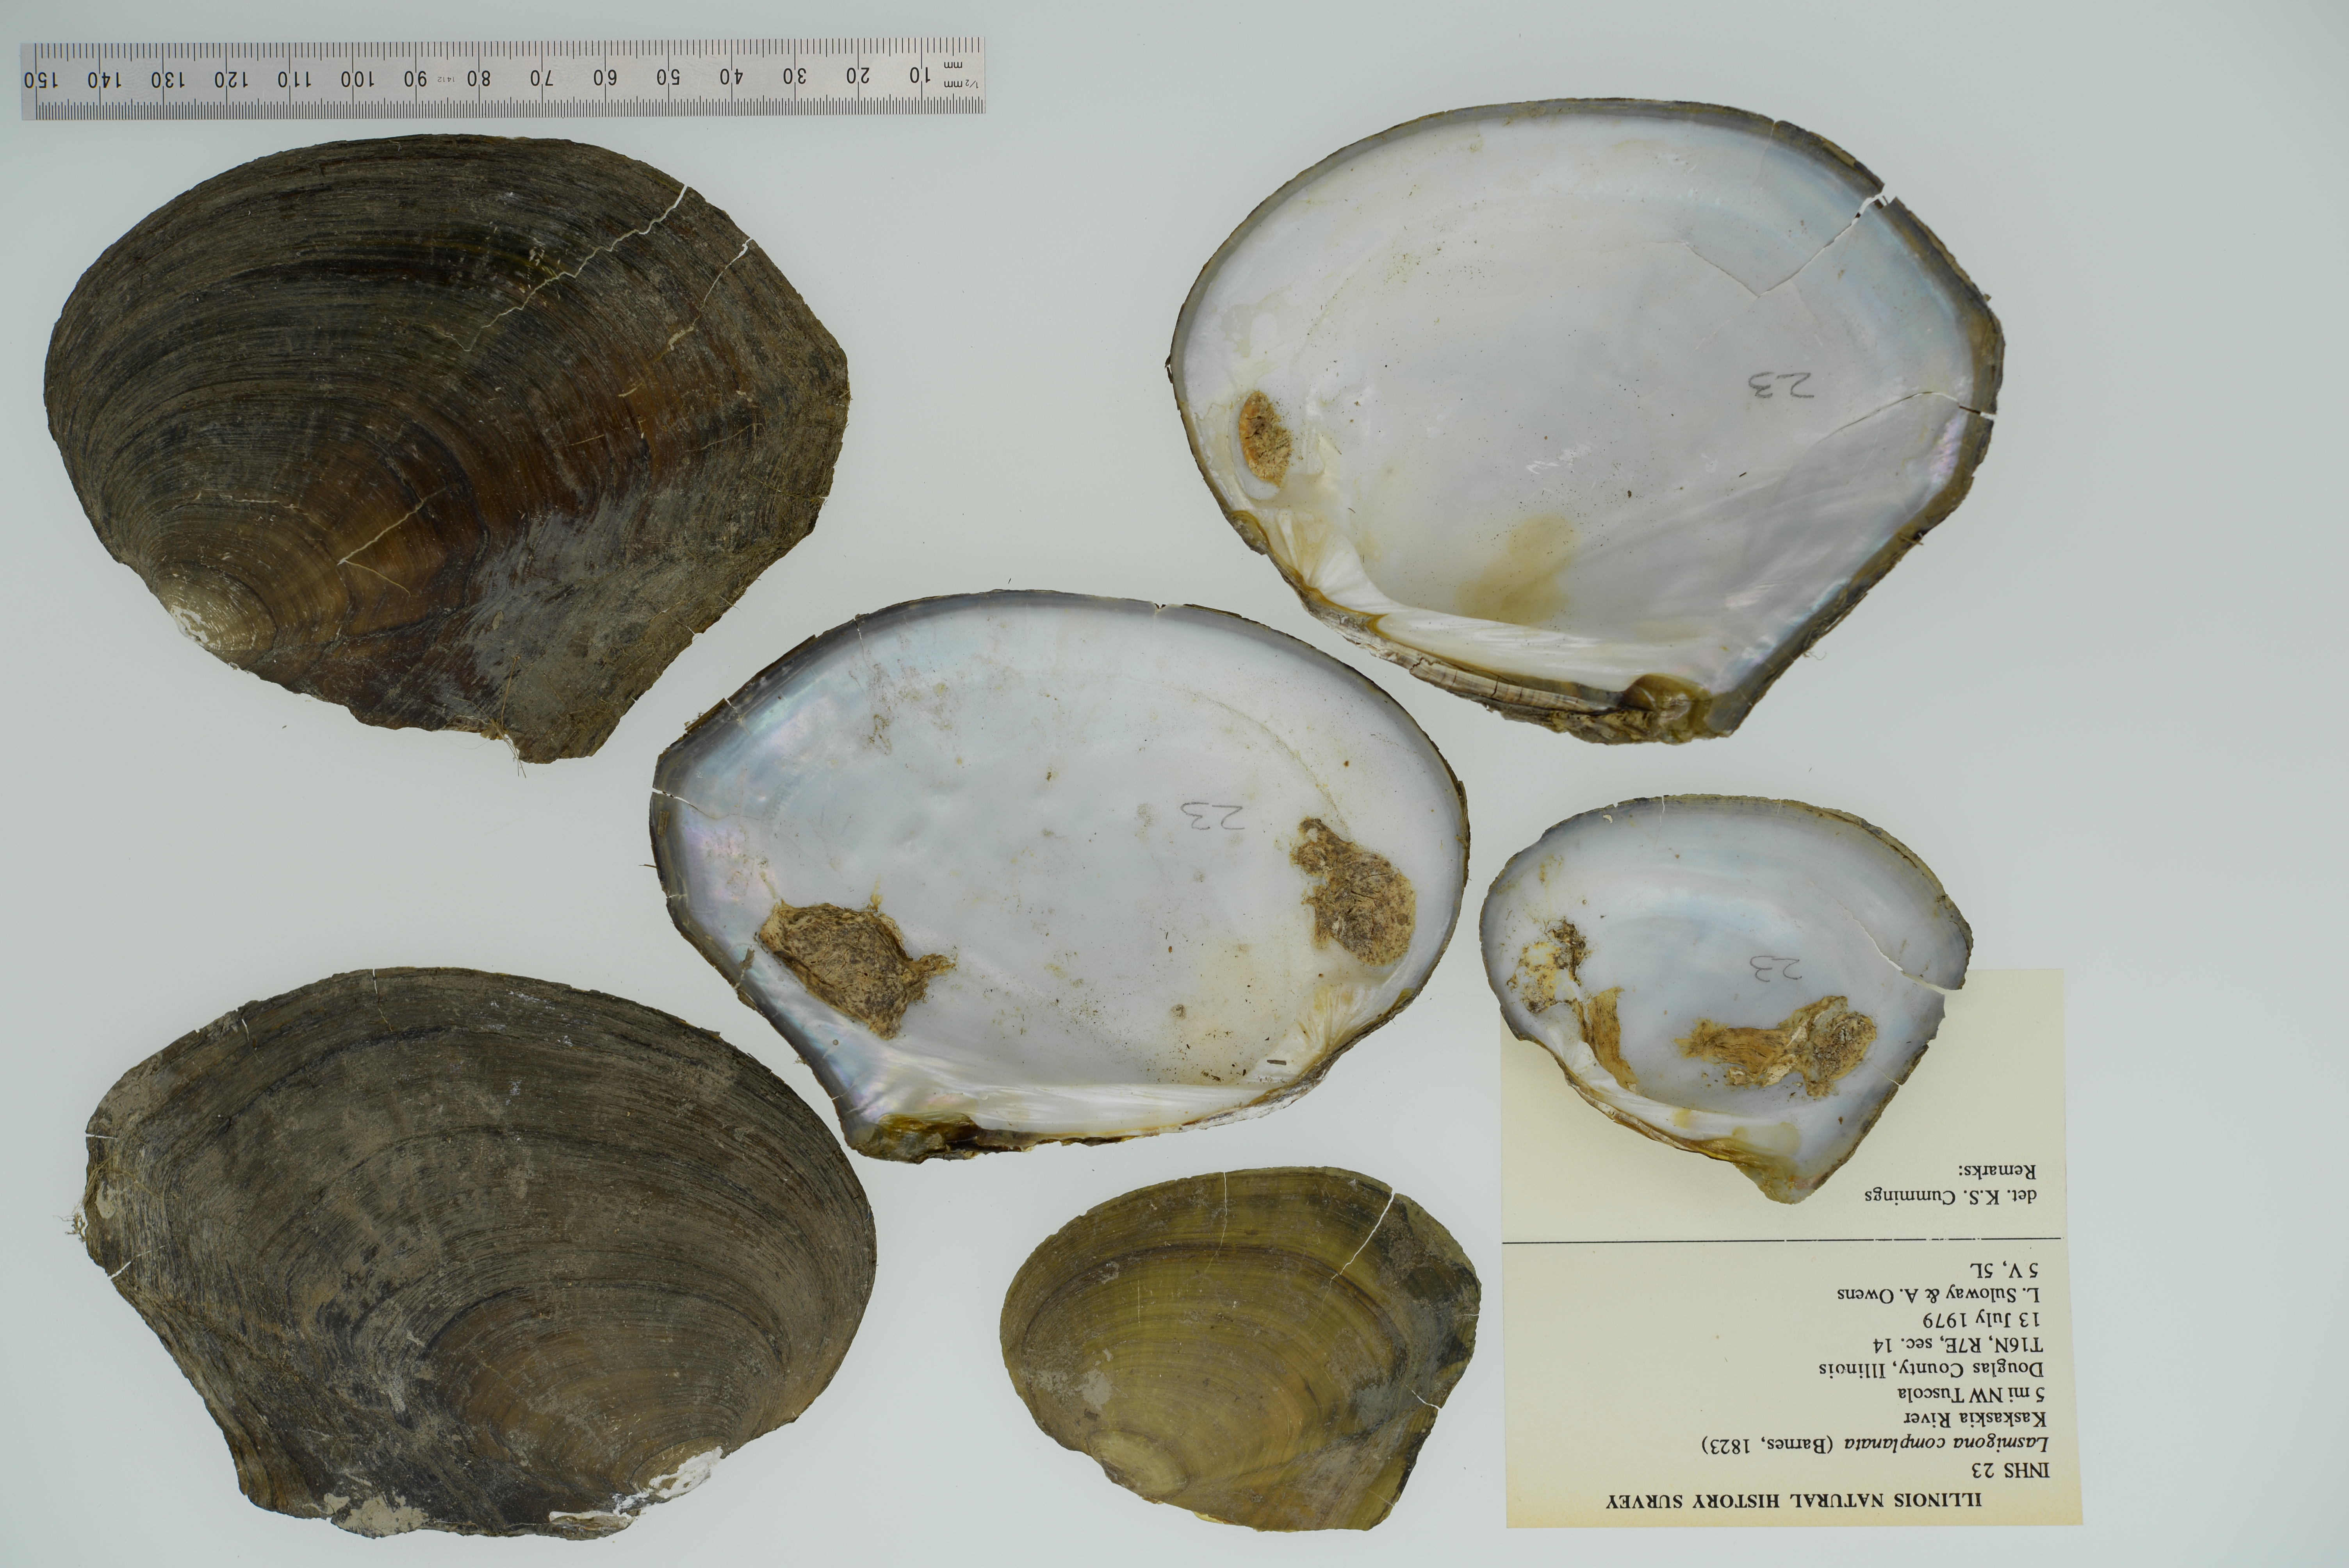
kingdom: Animalia
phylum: Mollusca
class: Bivalvia
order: Unionida
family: Unionidae
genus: Lasmigona
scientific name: Lasmigona complanata
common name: White heelsplitter
